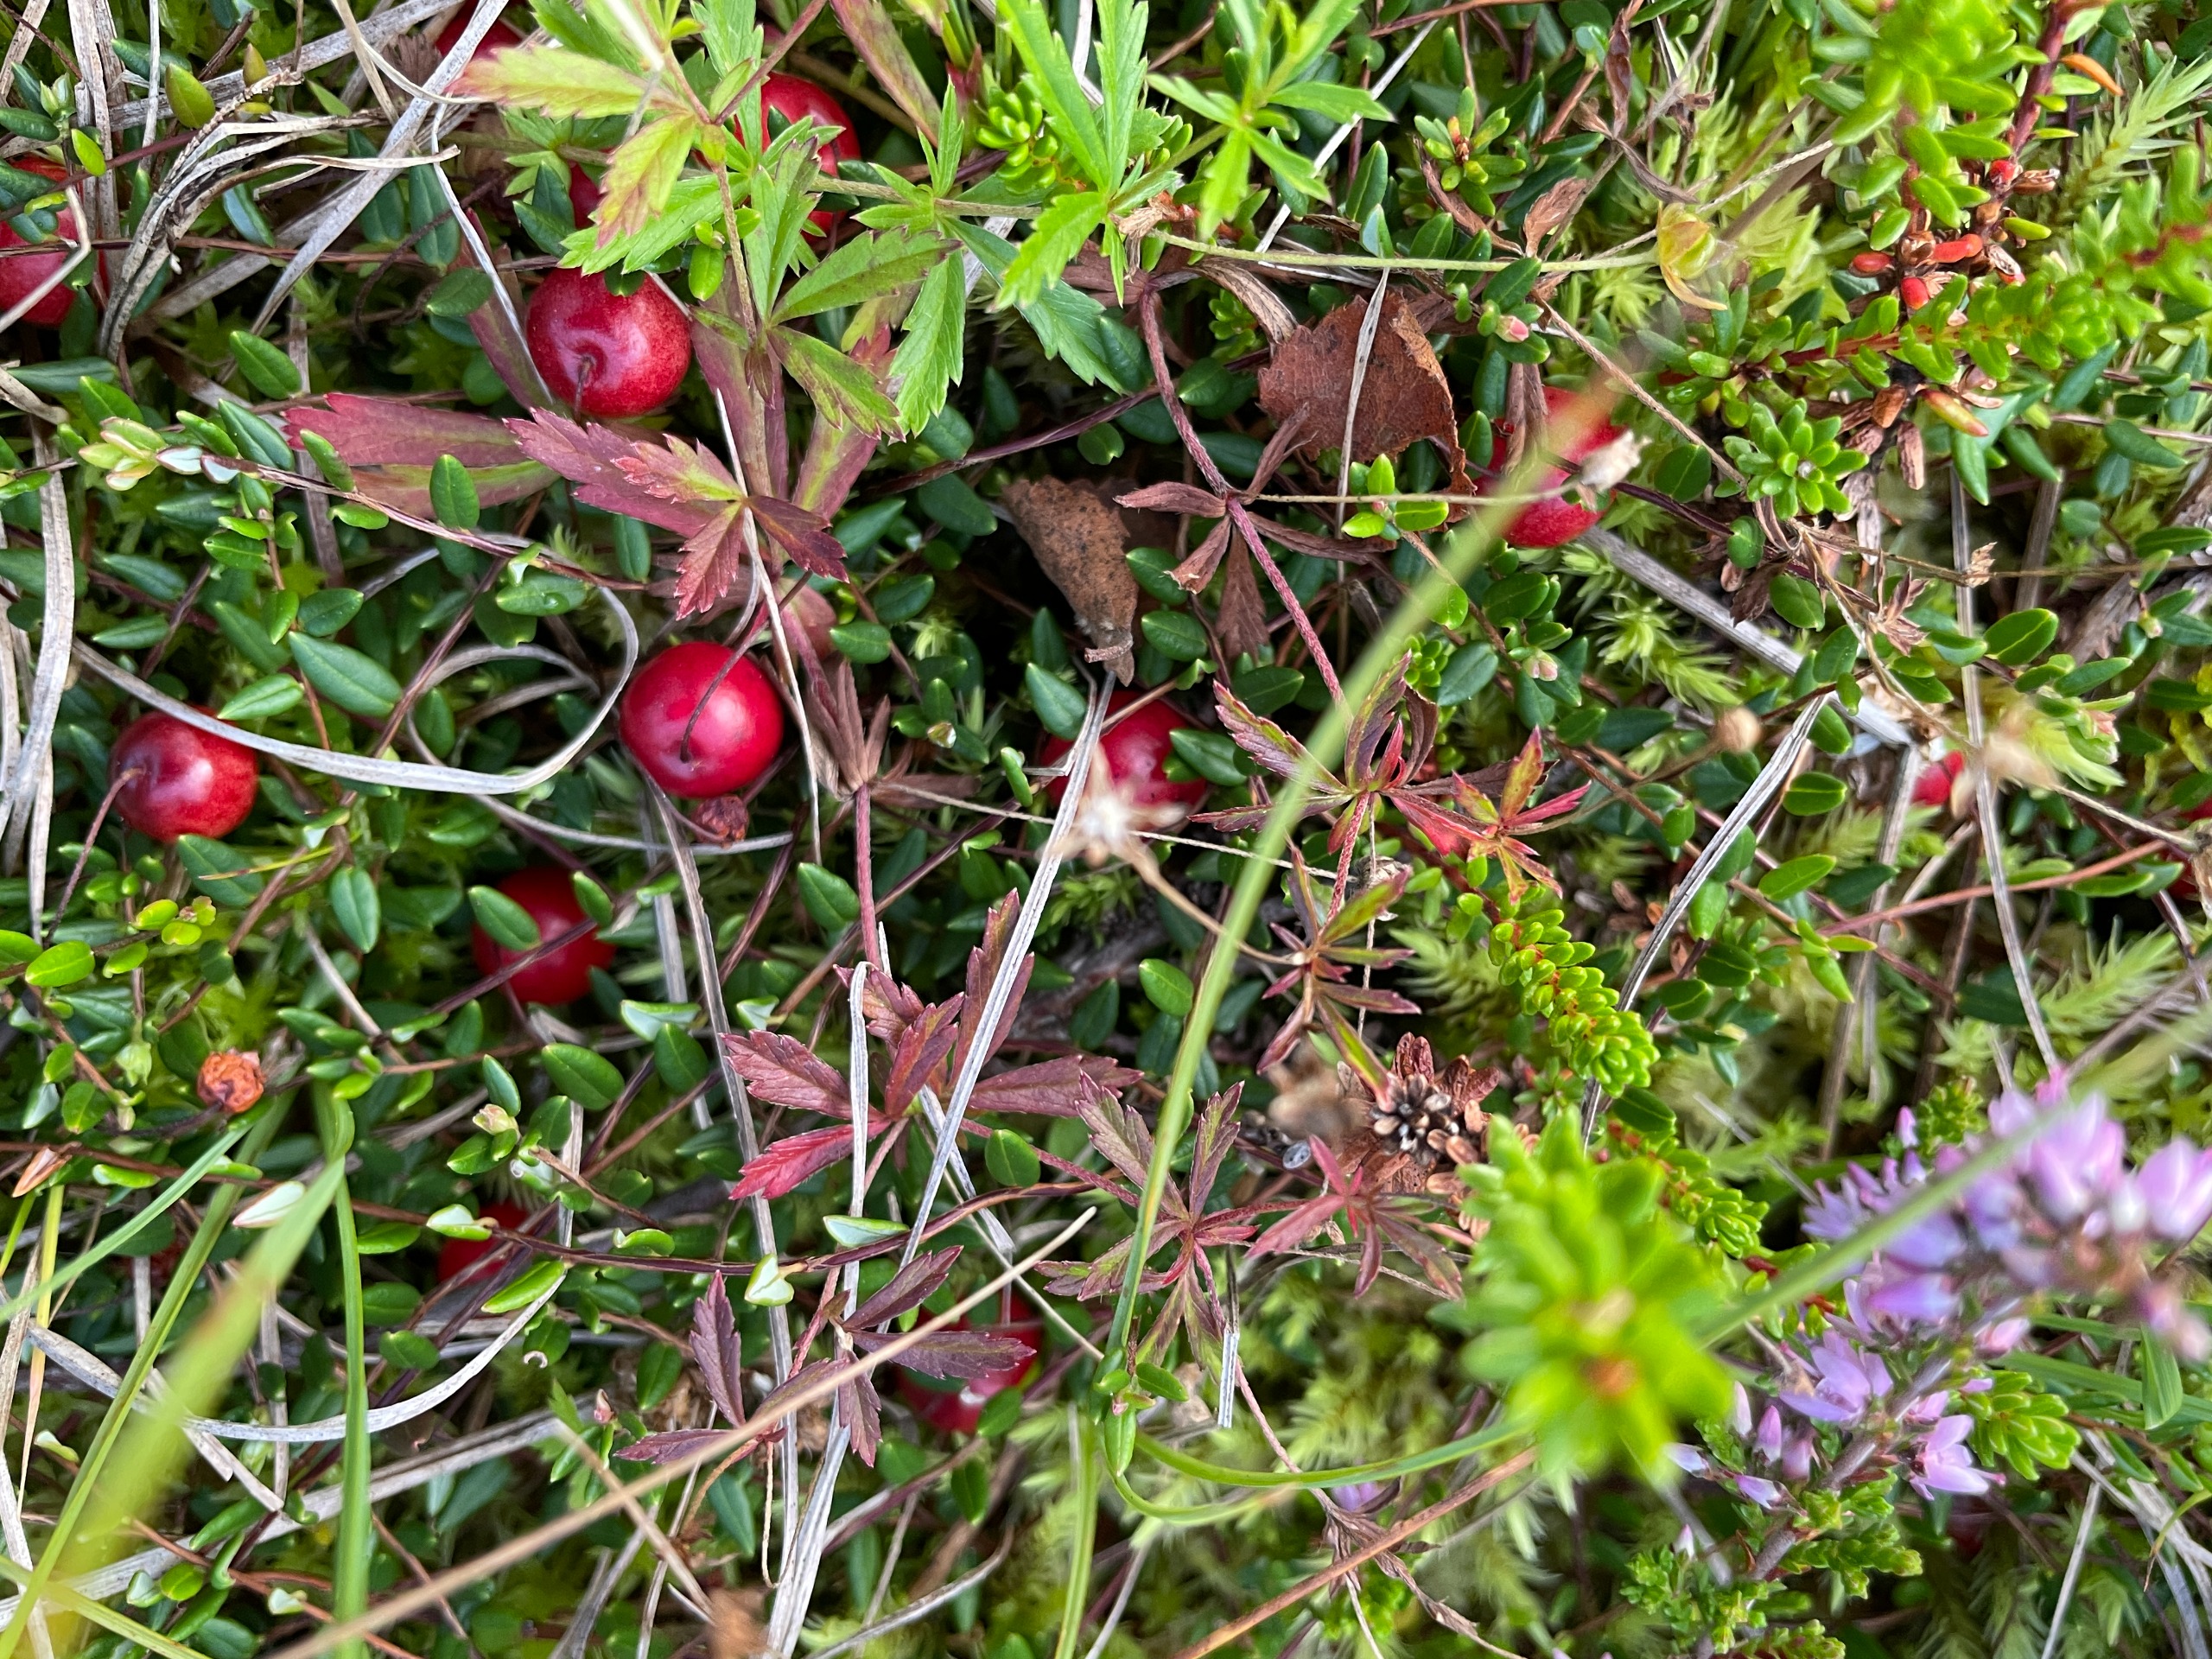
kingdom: Plantae
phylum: Tracheophyta
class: Magnoliopsida
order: Ericales
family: Ericaceae
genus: Vaccinium
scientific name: Vaccinium oxycoccos
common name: Tranebær
